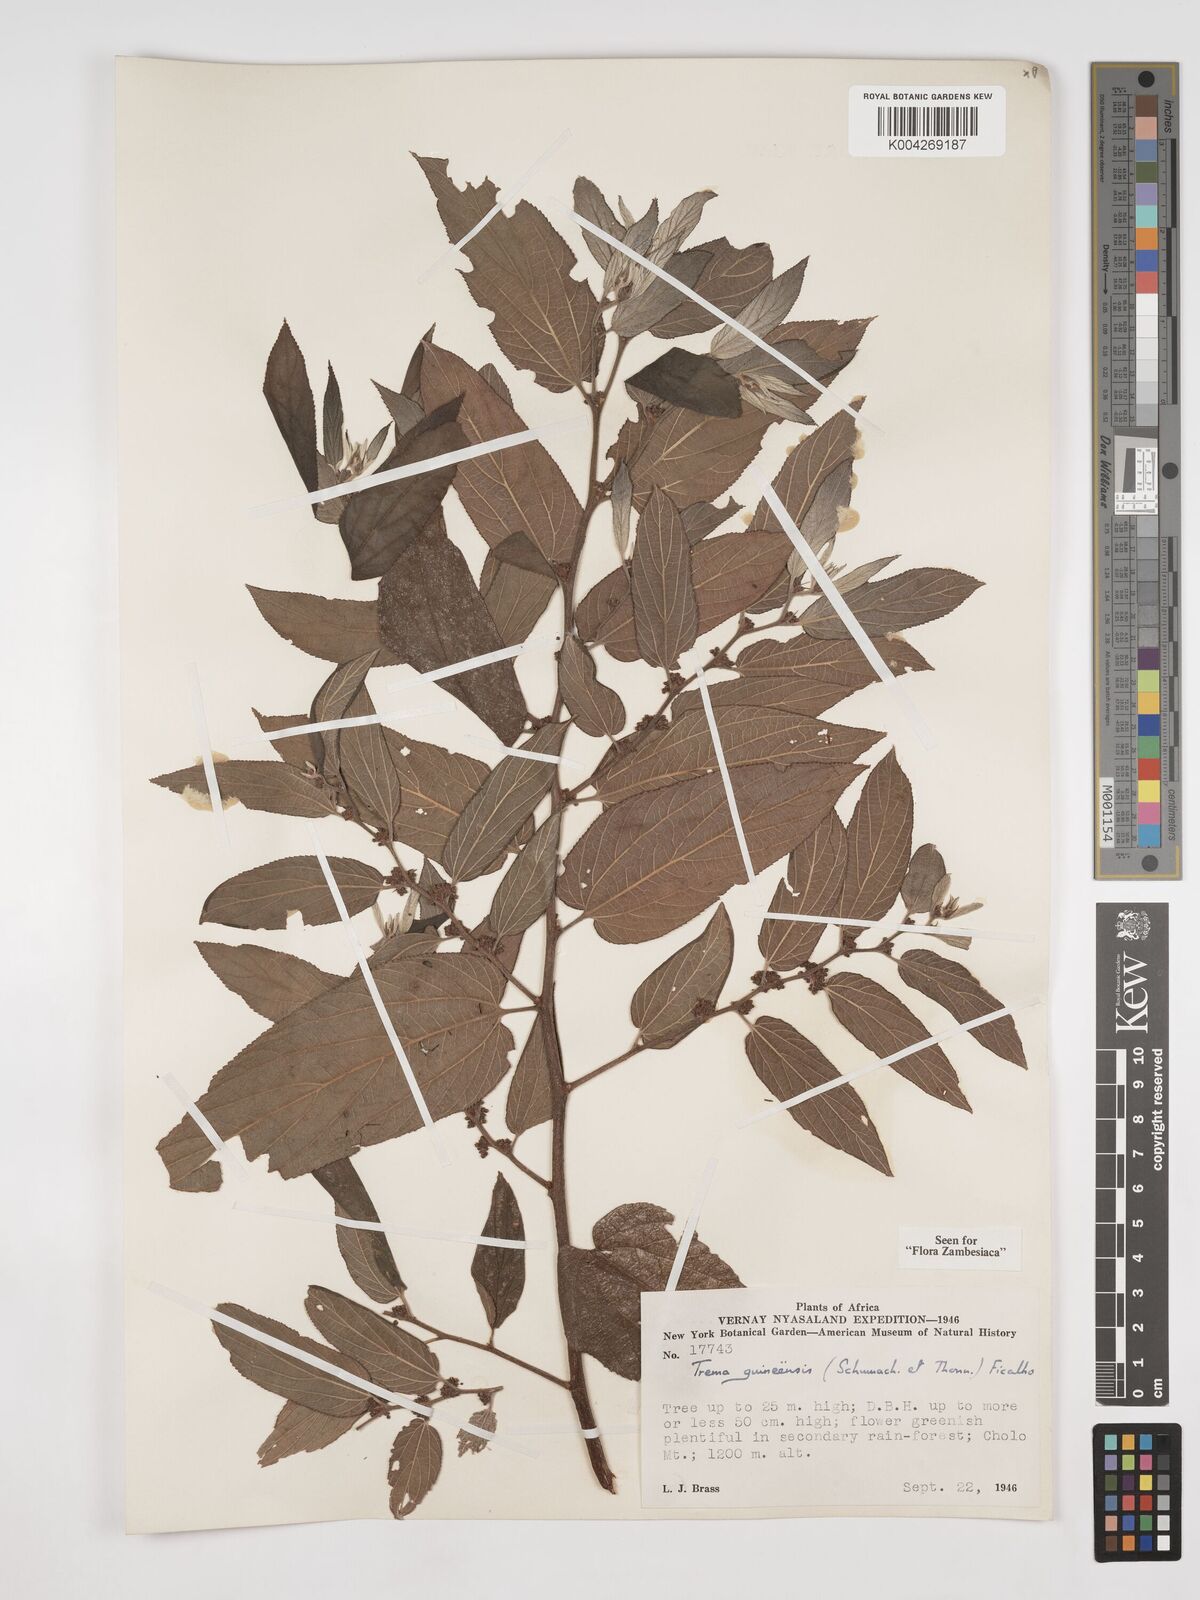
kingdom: Plantae
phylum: Tracheophyta
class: Magnoliopsida
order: Rosales
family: Cannabaceae
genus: Trema
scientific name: Trema orientale
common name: Indian charcoal tree
